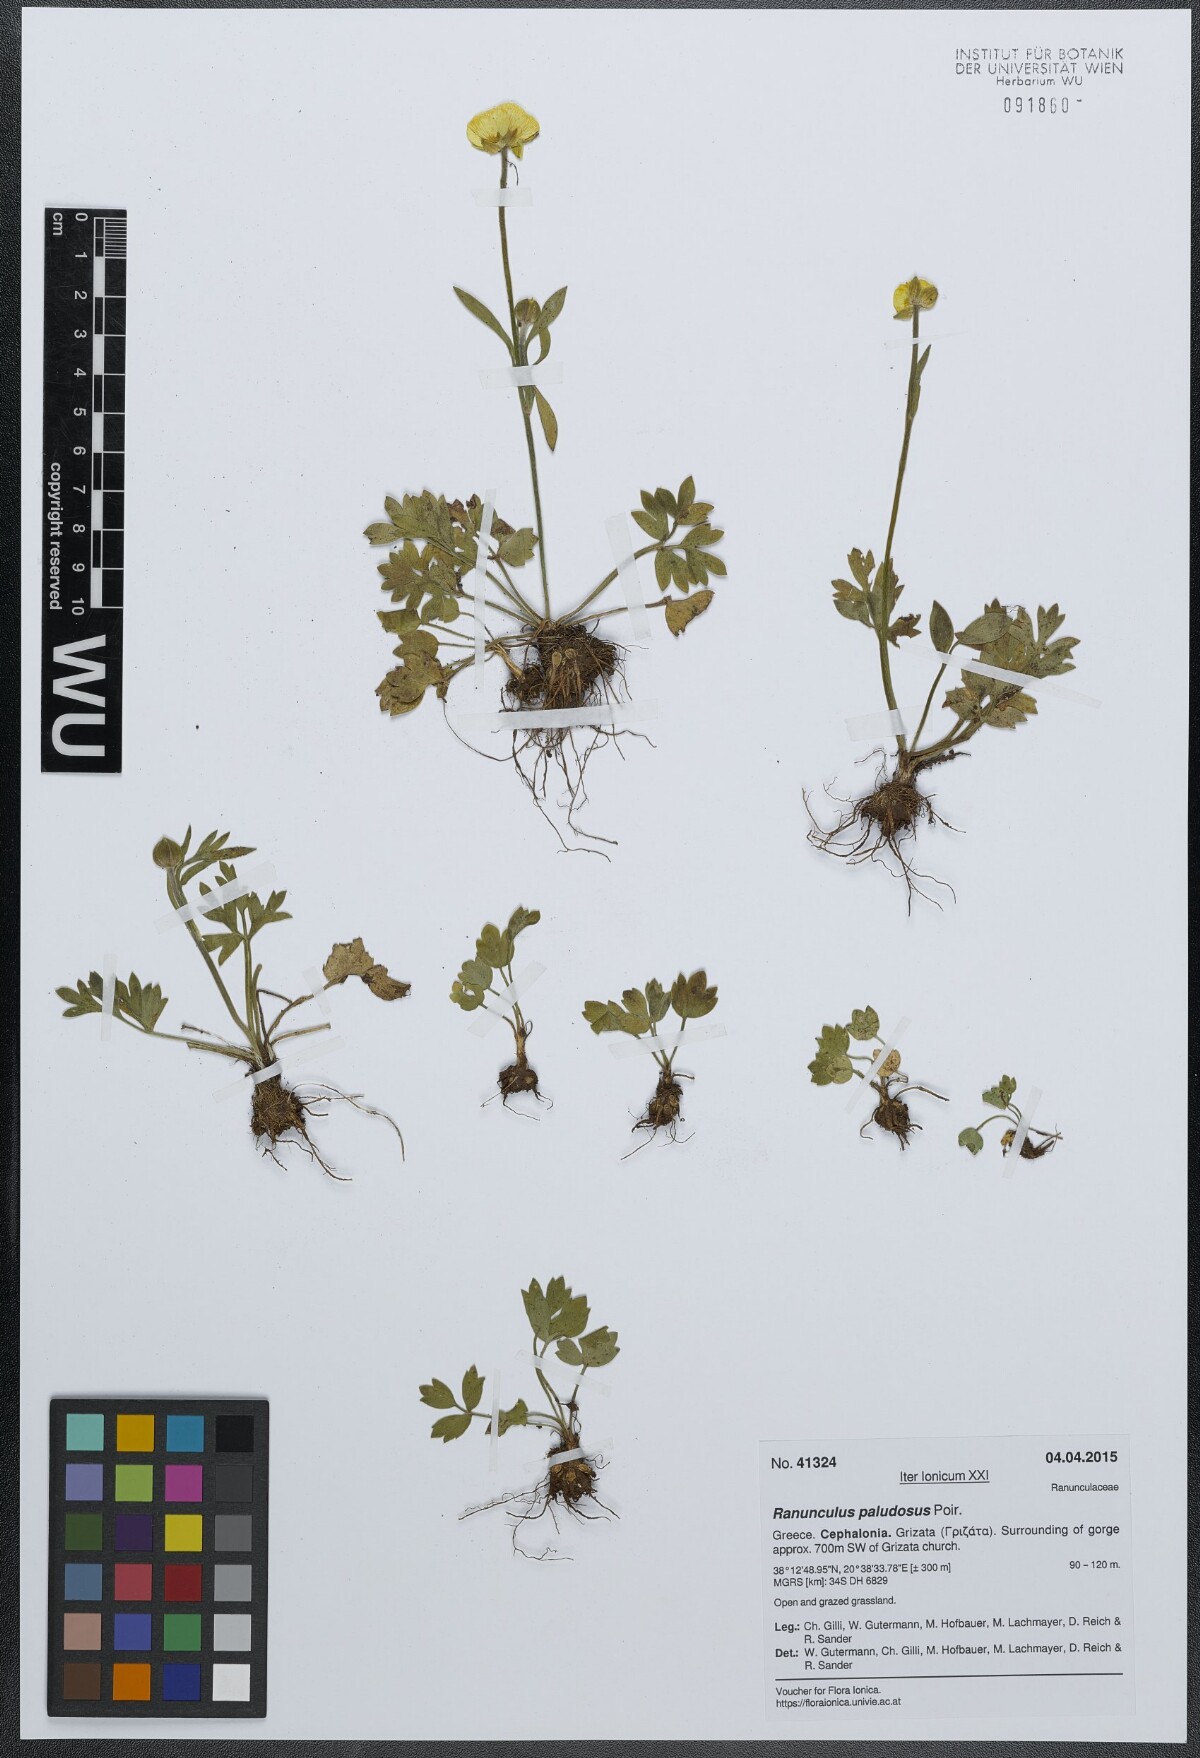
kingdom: Plantae
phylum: Tracheophyta
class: Magnoliopsida
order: Ranunculales
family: Ranunculaceae
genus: Ranunculus
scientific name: Ranunculus paludosus
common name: Jersey buttercup
